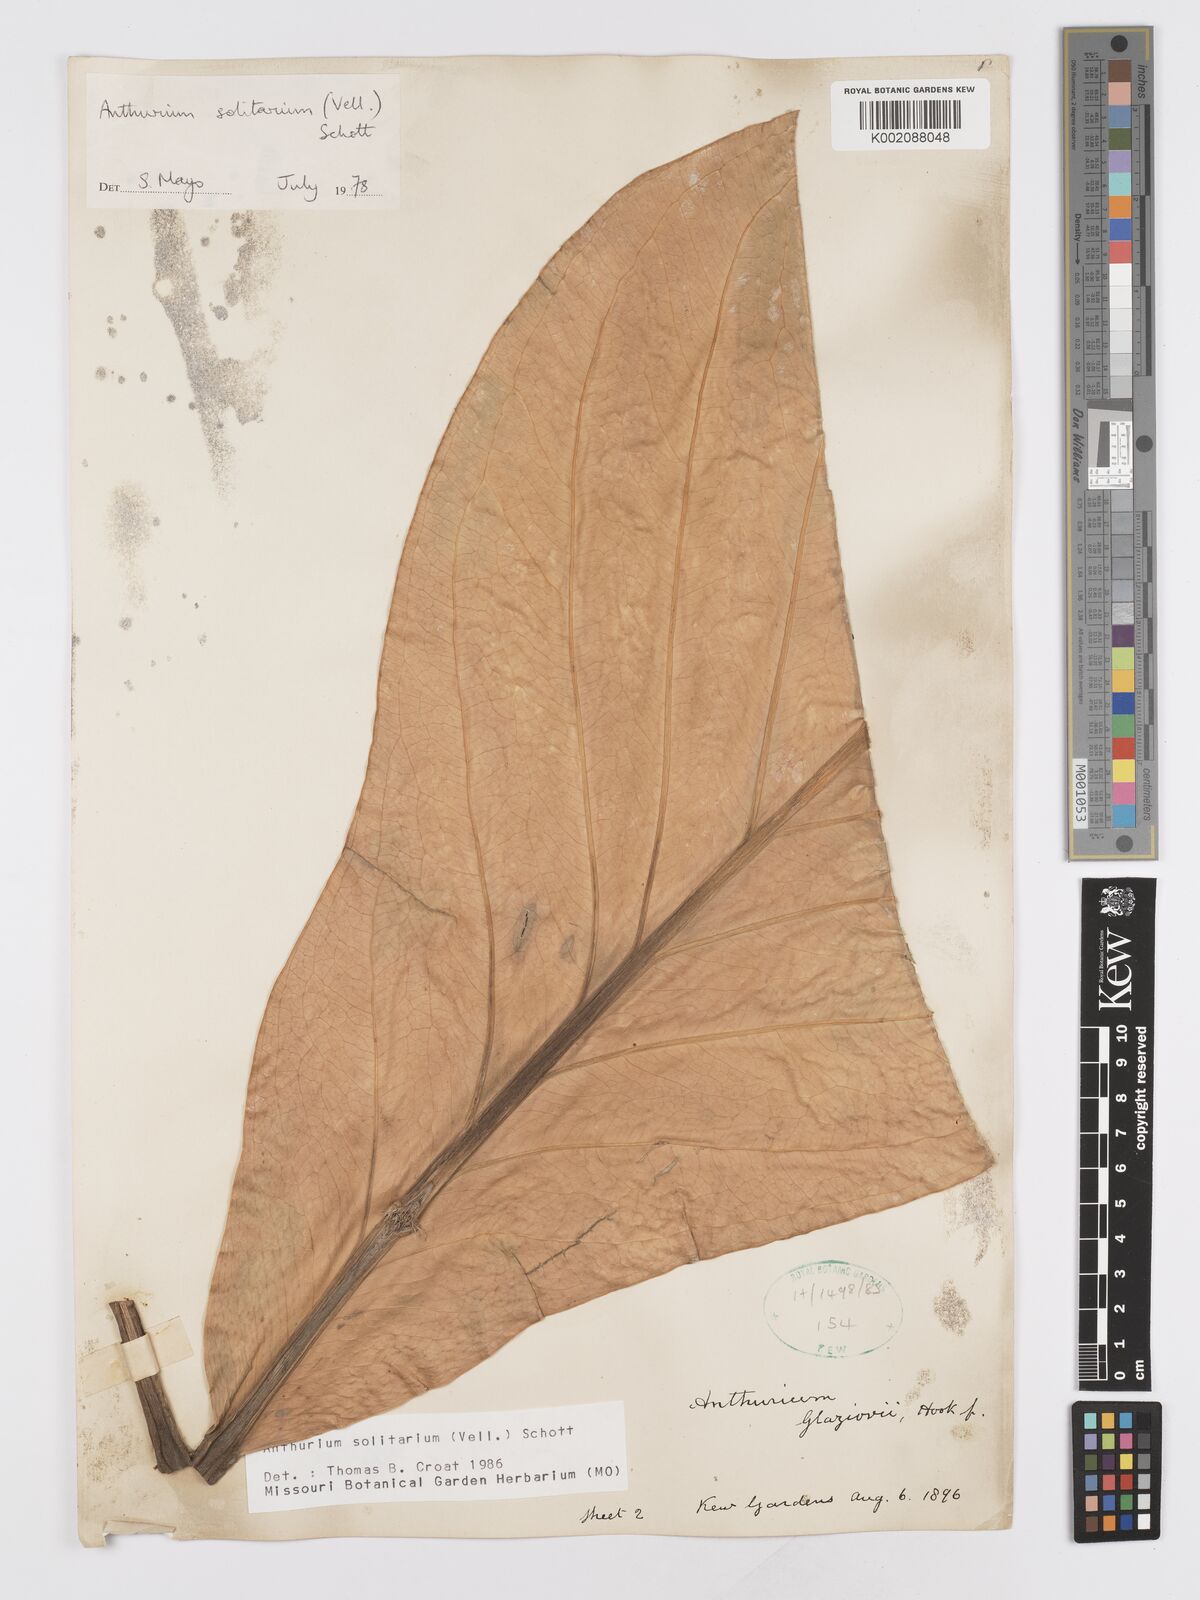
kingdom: Plantae
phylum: Tracheophyta
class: Liliopsida
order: Alismatales
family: Araceae
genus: Anthurium
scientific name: Anthurium solitarium
